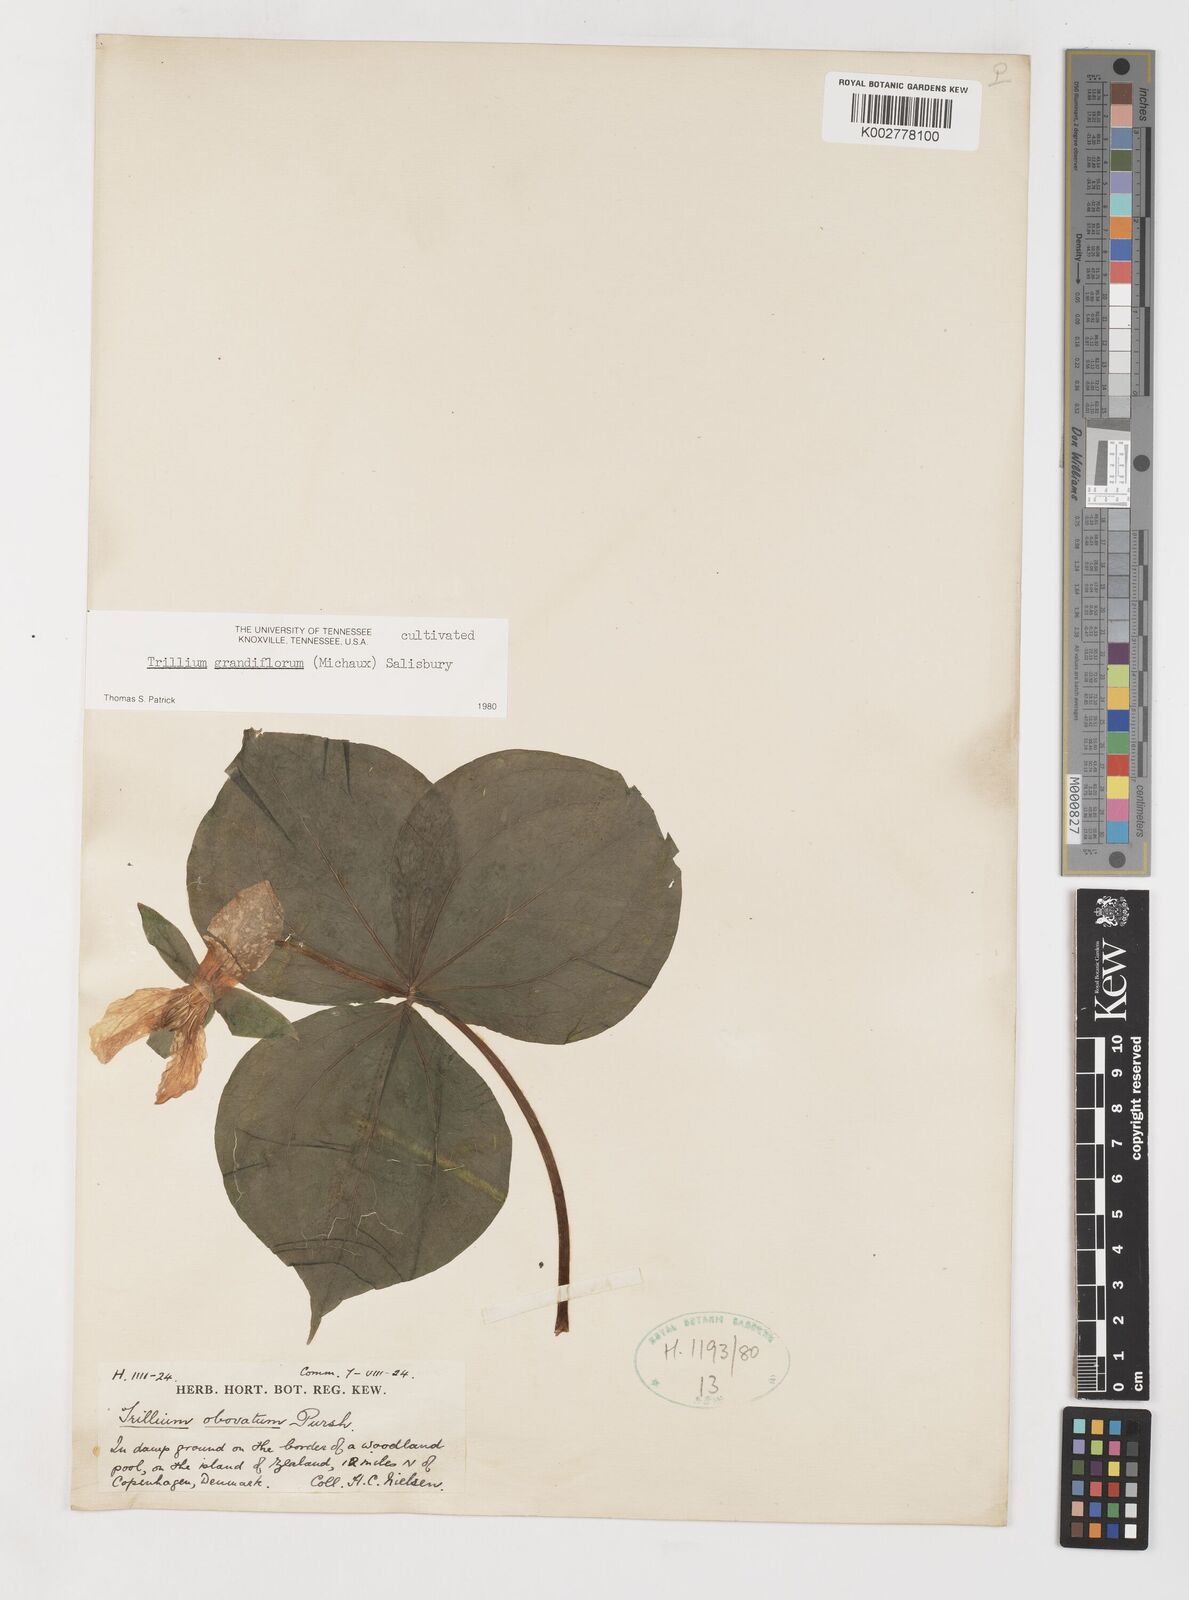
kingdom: Plantae
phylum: Tracheophyta
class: Liliopsida
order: Liliales
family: Melanthiaceae
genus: Trillium
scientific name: Trillium grandiflorum
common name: Great white trillium
